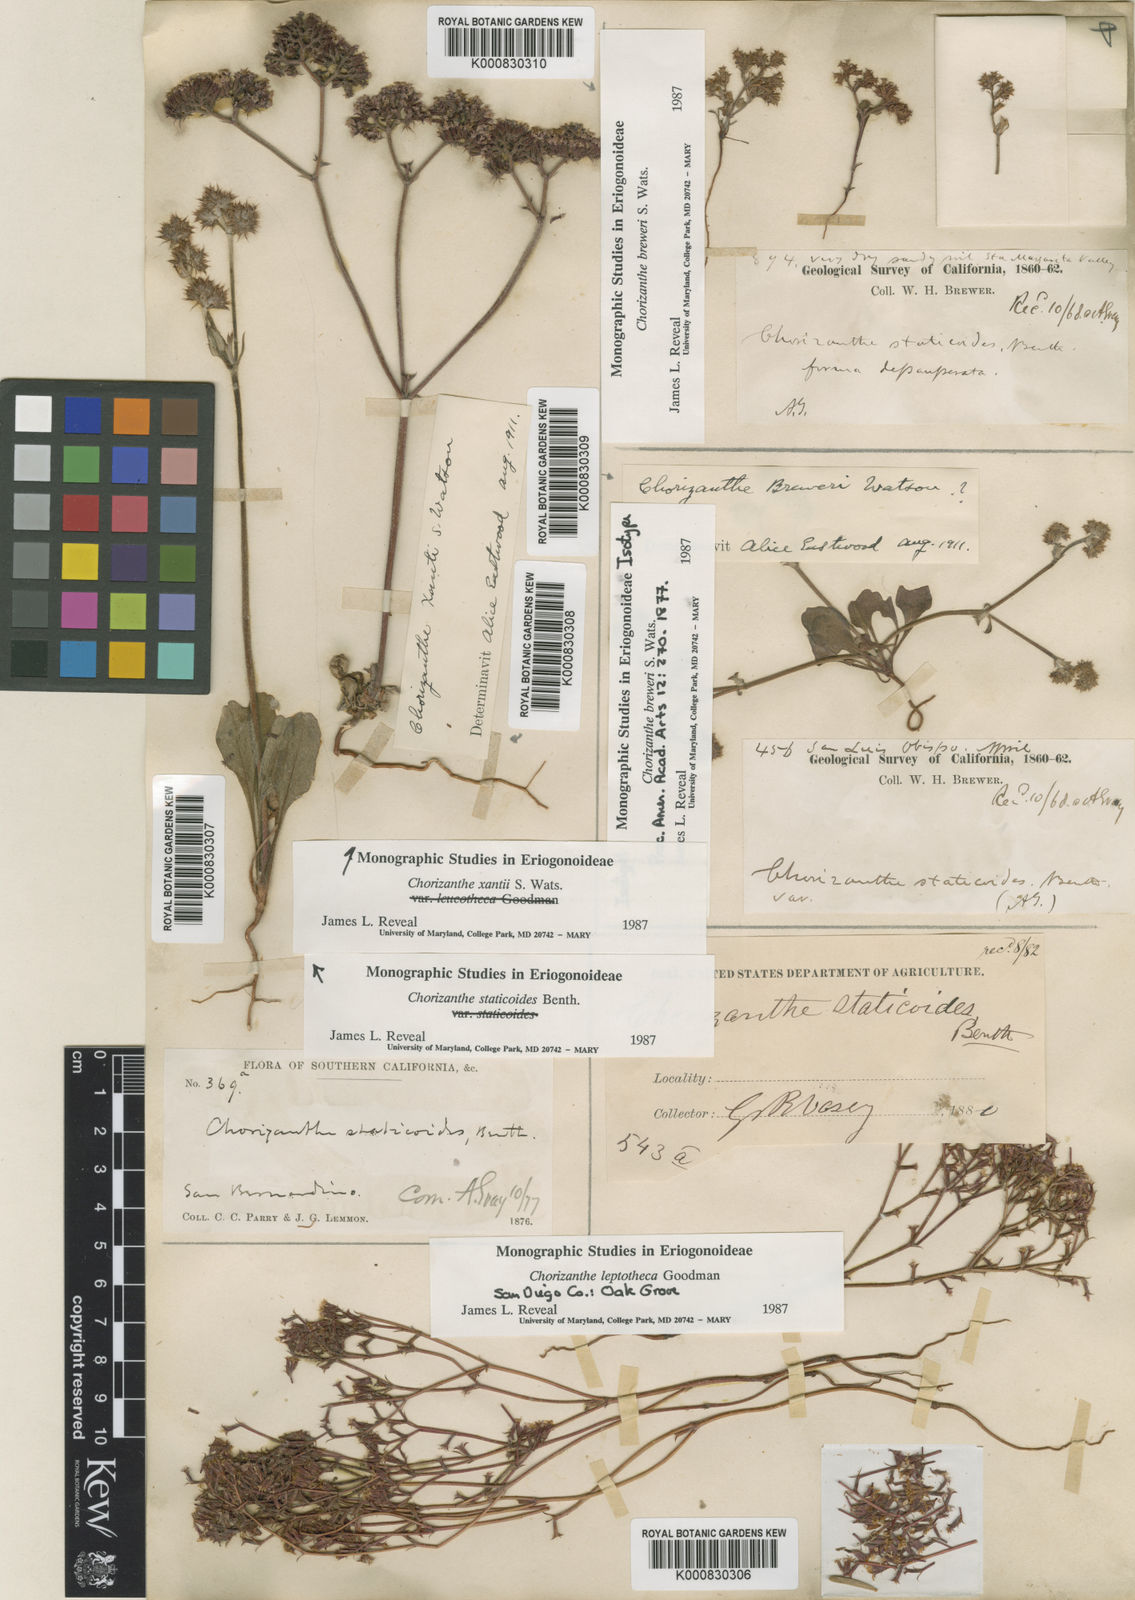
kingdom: Plantae
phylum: Tracheophyta
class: Magnoliopsida
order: Caryophyllales
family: Polygonaceae
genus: Chorizanthe
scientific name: Chorizanthe breweri
